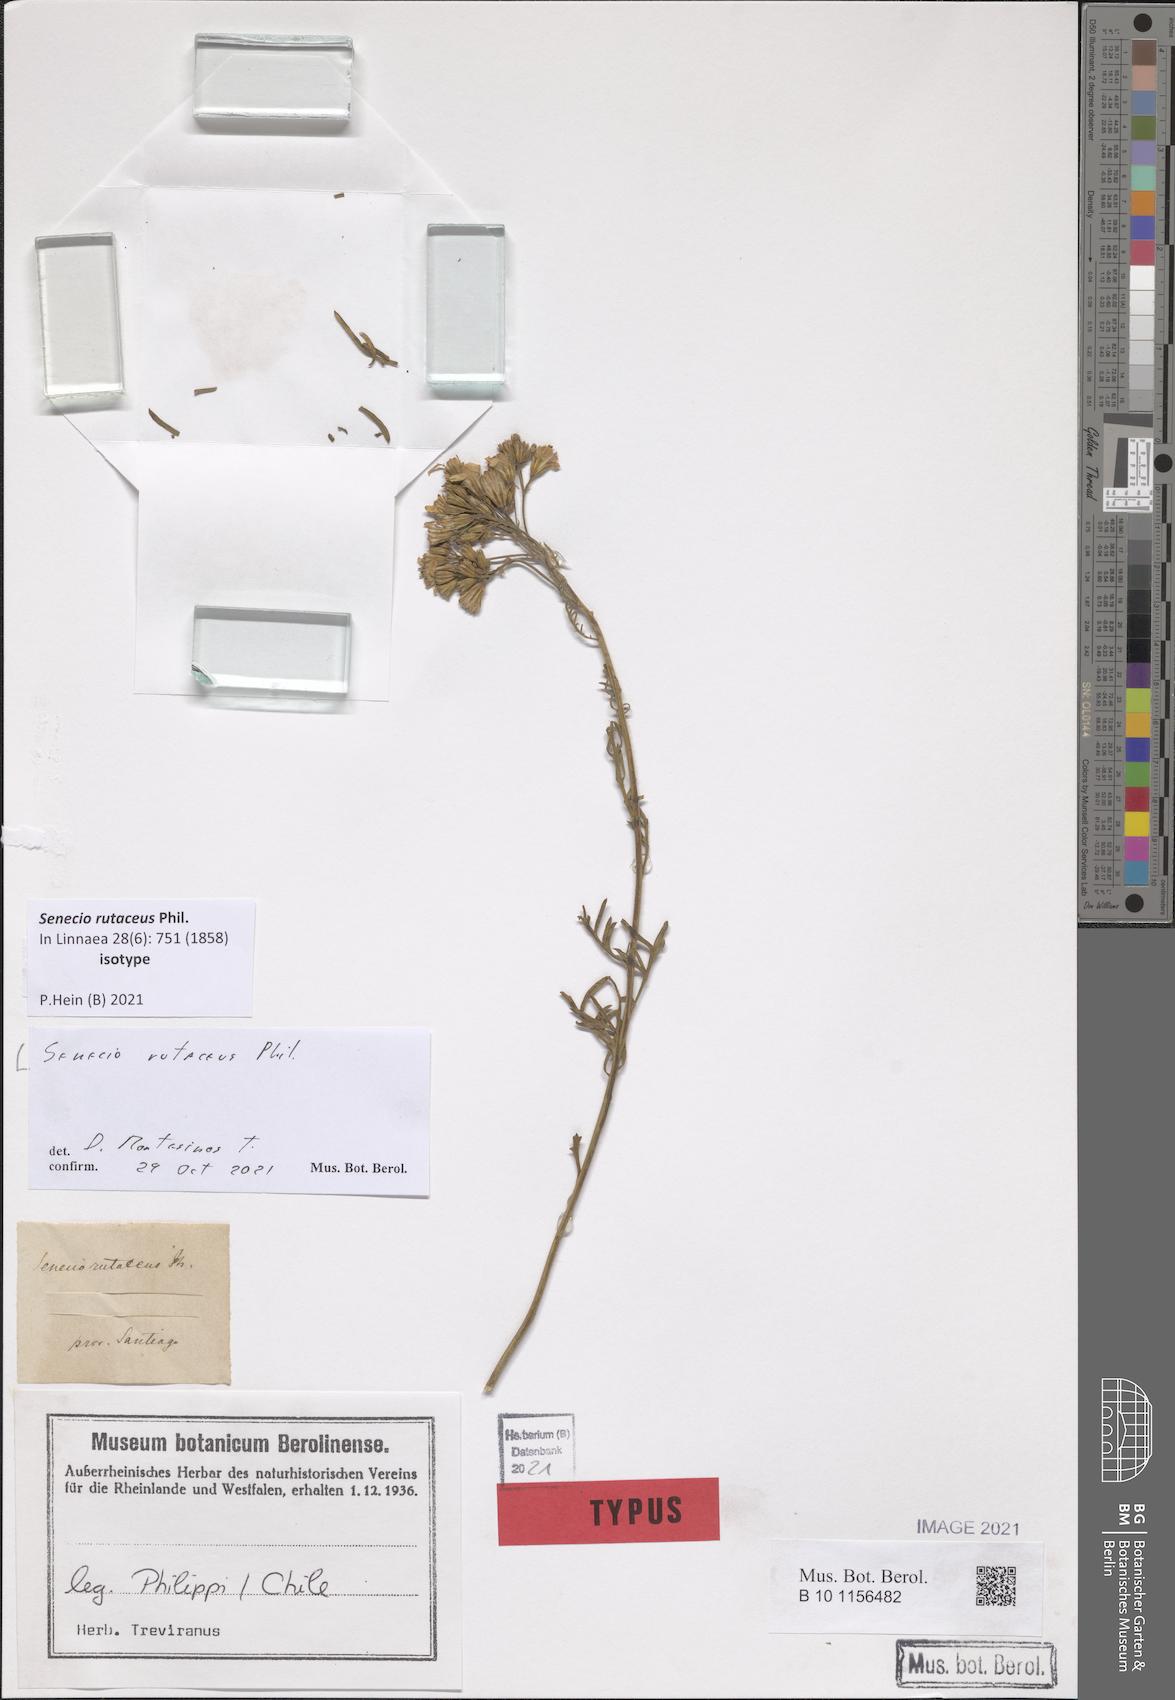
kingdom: Plantae
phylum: Tracheophyta
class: Magnoliopsida
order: Asterales
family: Asteraceae
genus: Senecio
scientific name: Senecio eruciformis
